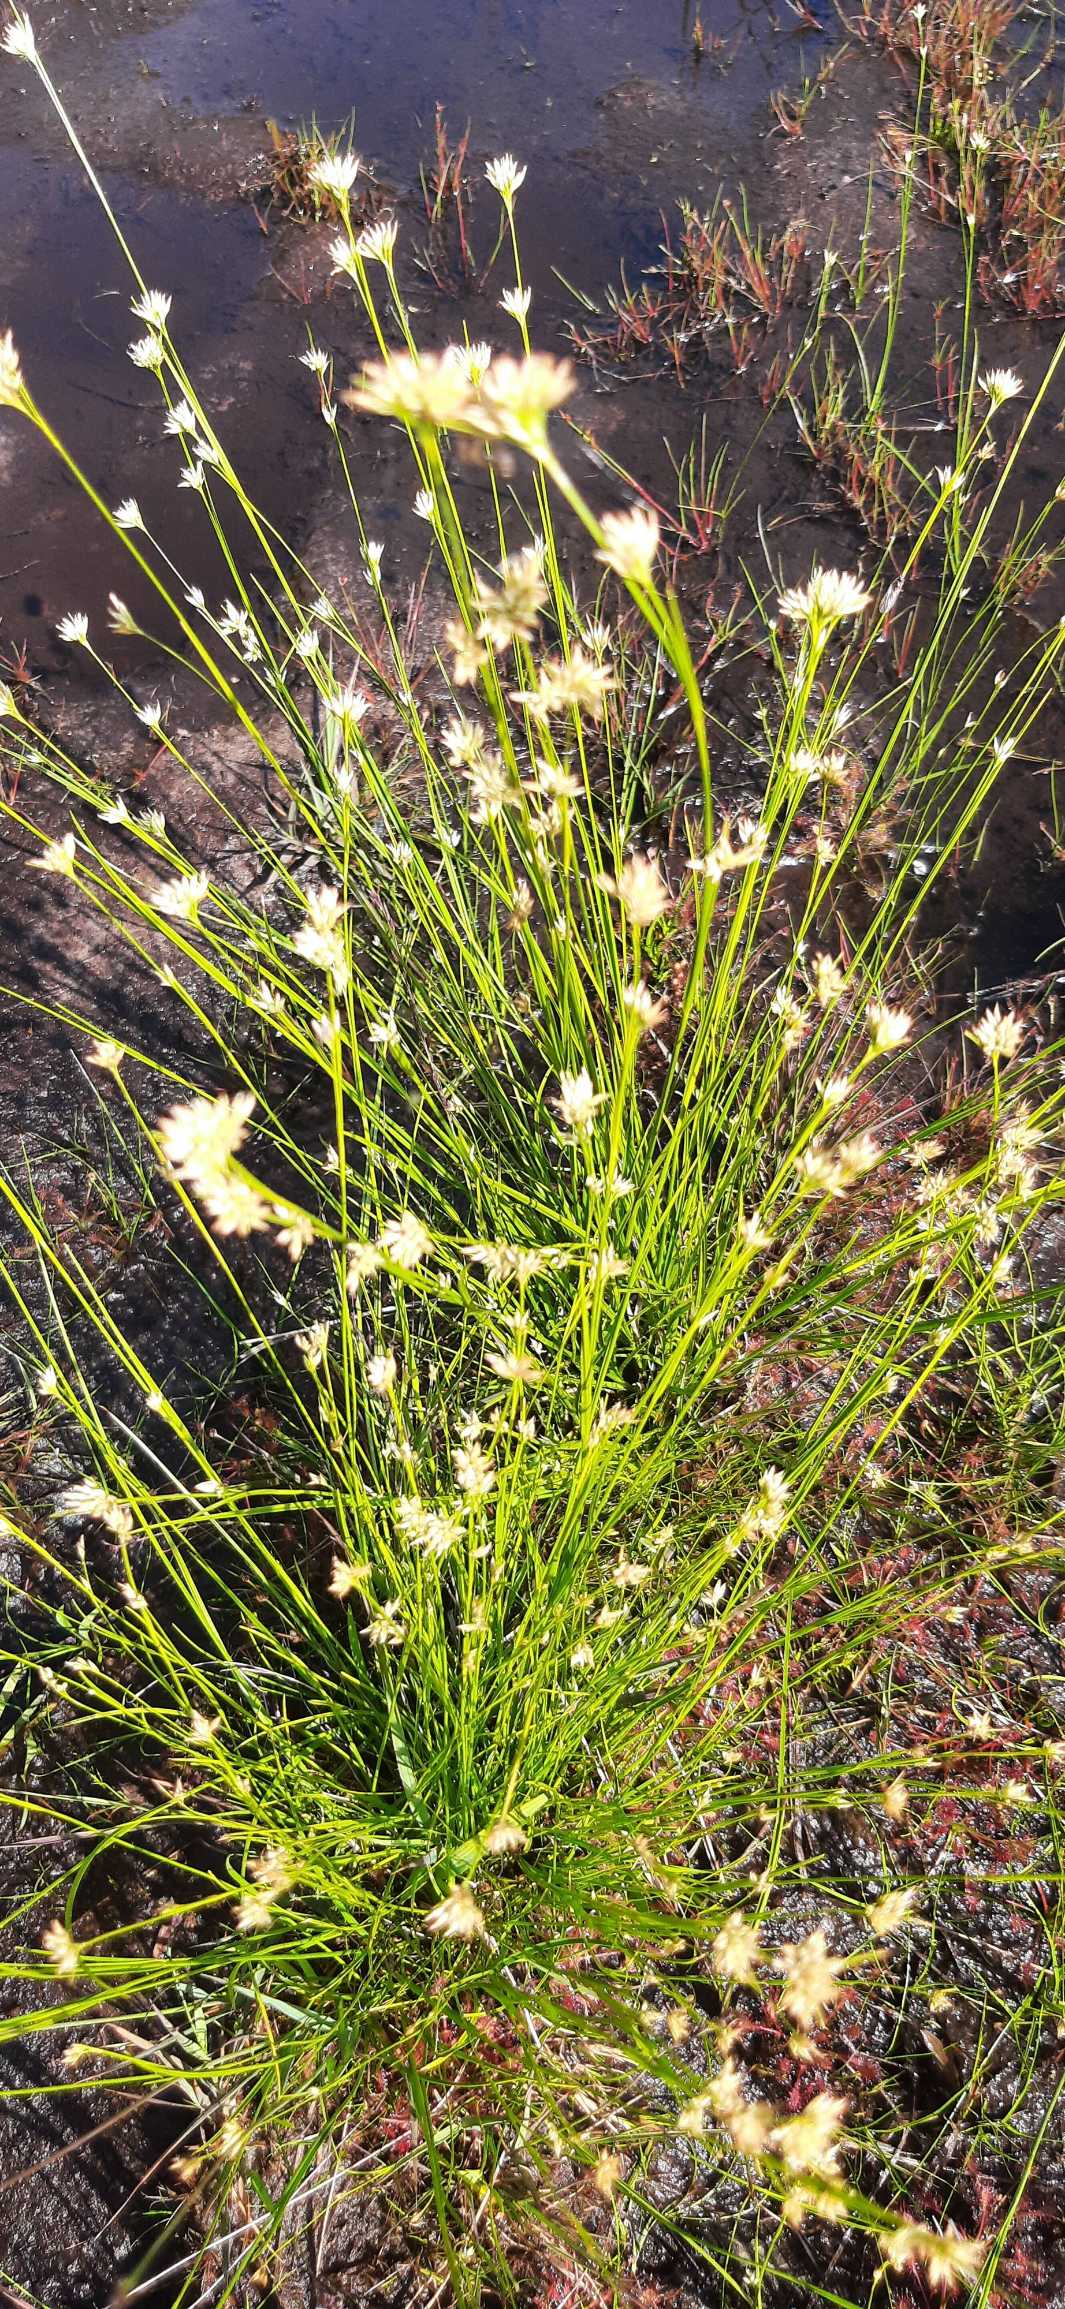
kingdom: Plantae
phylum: Tracheophyta
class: Liliopsida
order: Poales
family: Cyperaceae
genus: Rhynchospora
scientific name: Rhynchospora alba
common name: Hvid næbfrø
